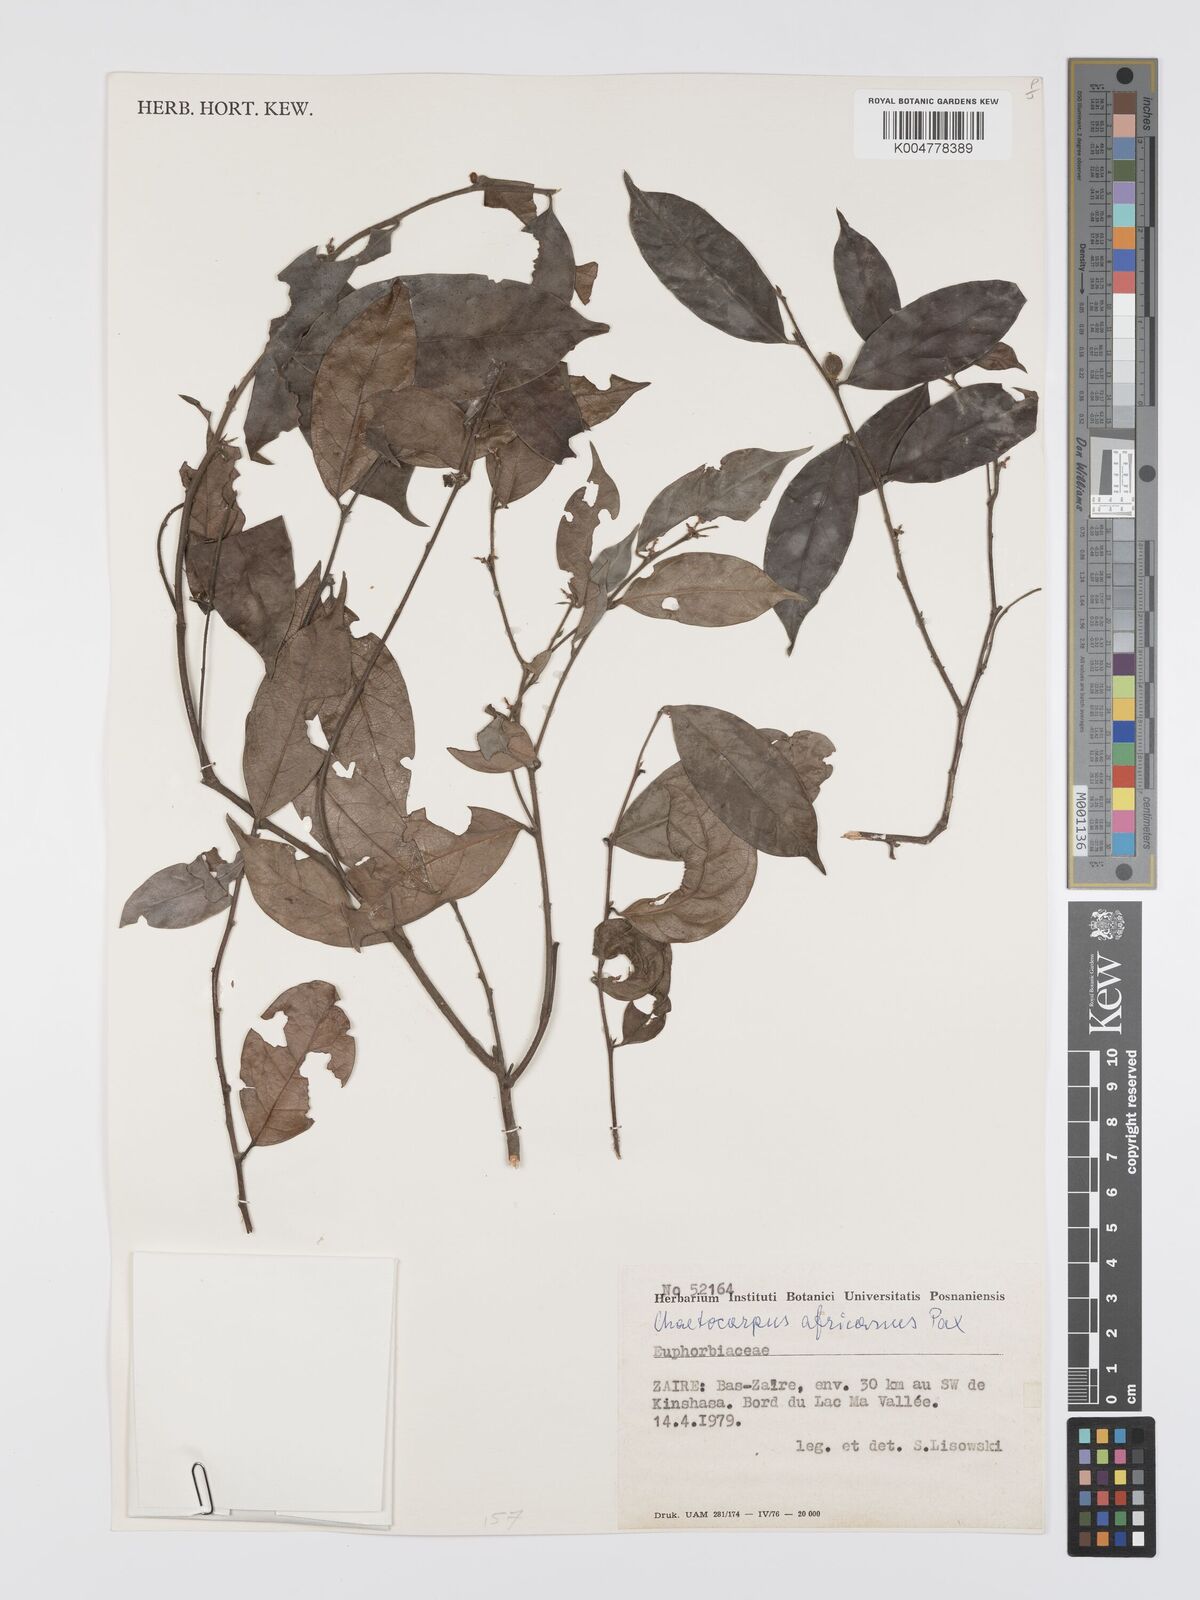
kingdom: Plantae
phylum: Tracheophyta
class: Magnoliopsida
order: Malpighiales
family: Peraceae
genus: Chaetocarpus
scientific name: Chaetocarpus africanus
